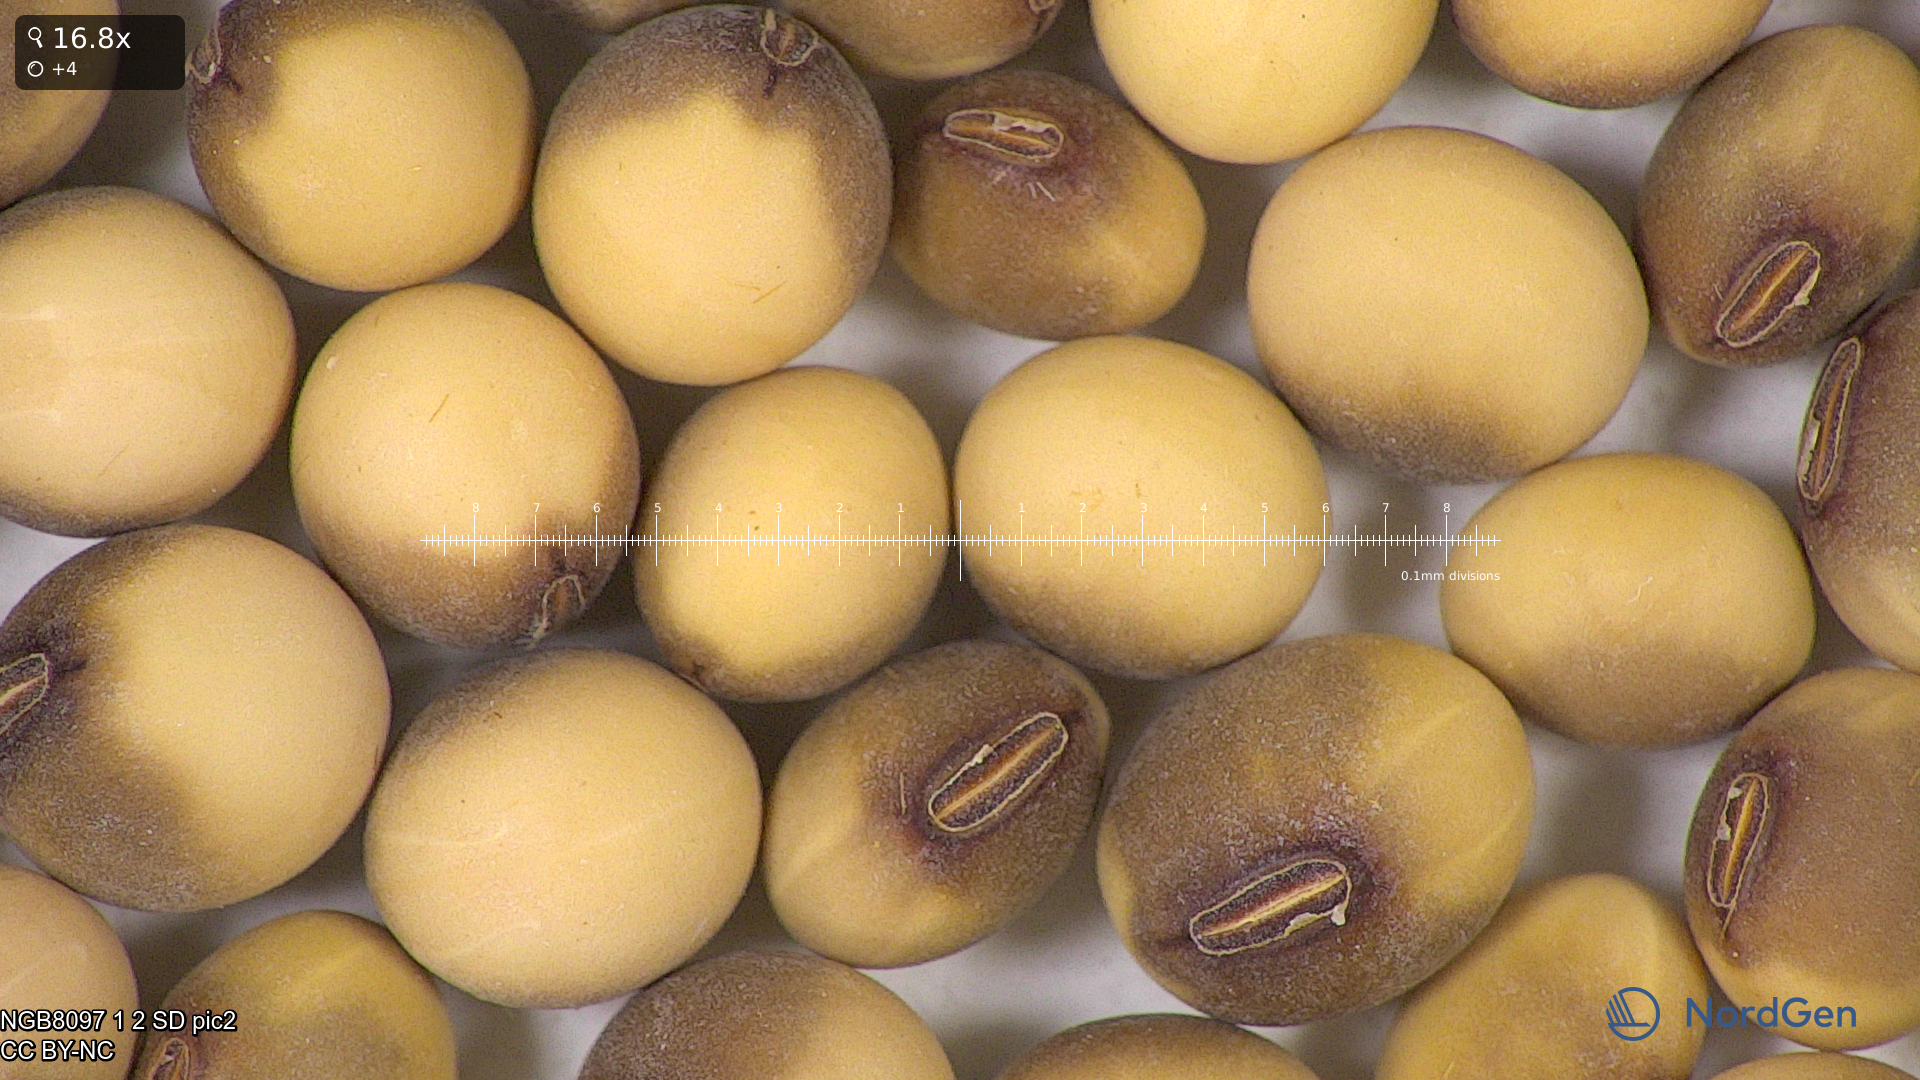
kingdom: Plantae
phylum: Tracheophyta
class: Magnoliopsida
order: Fabales
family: Fabaceae
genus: Glycine
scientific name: Glycine max
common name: Soya-bean
